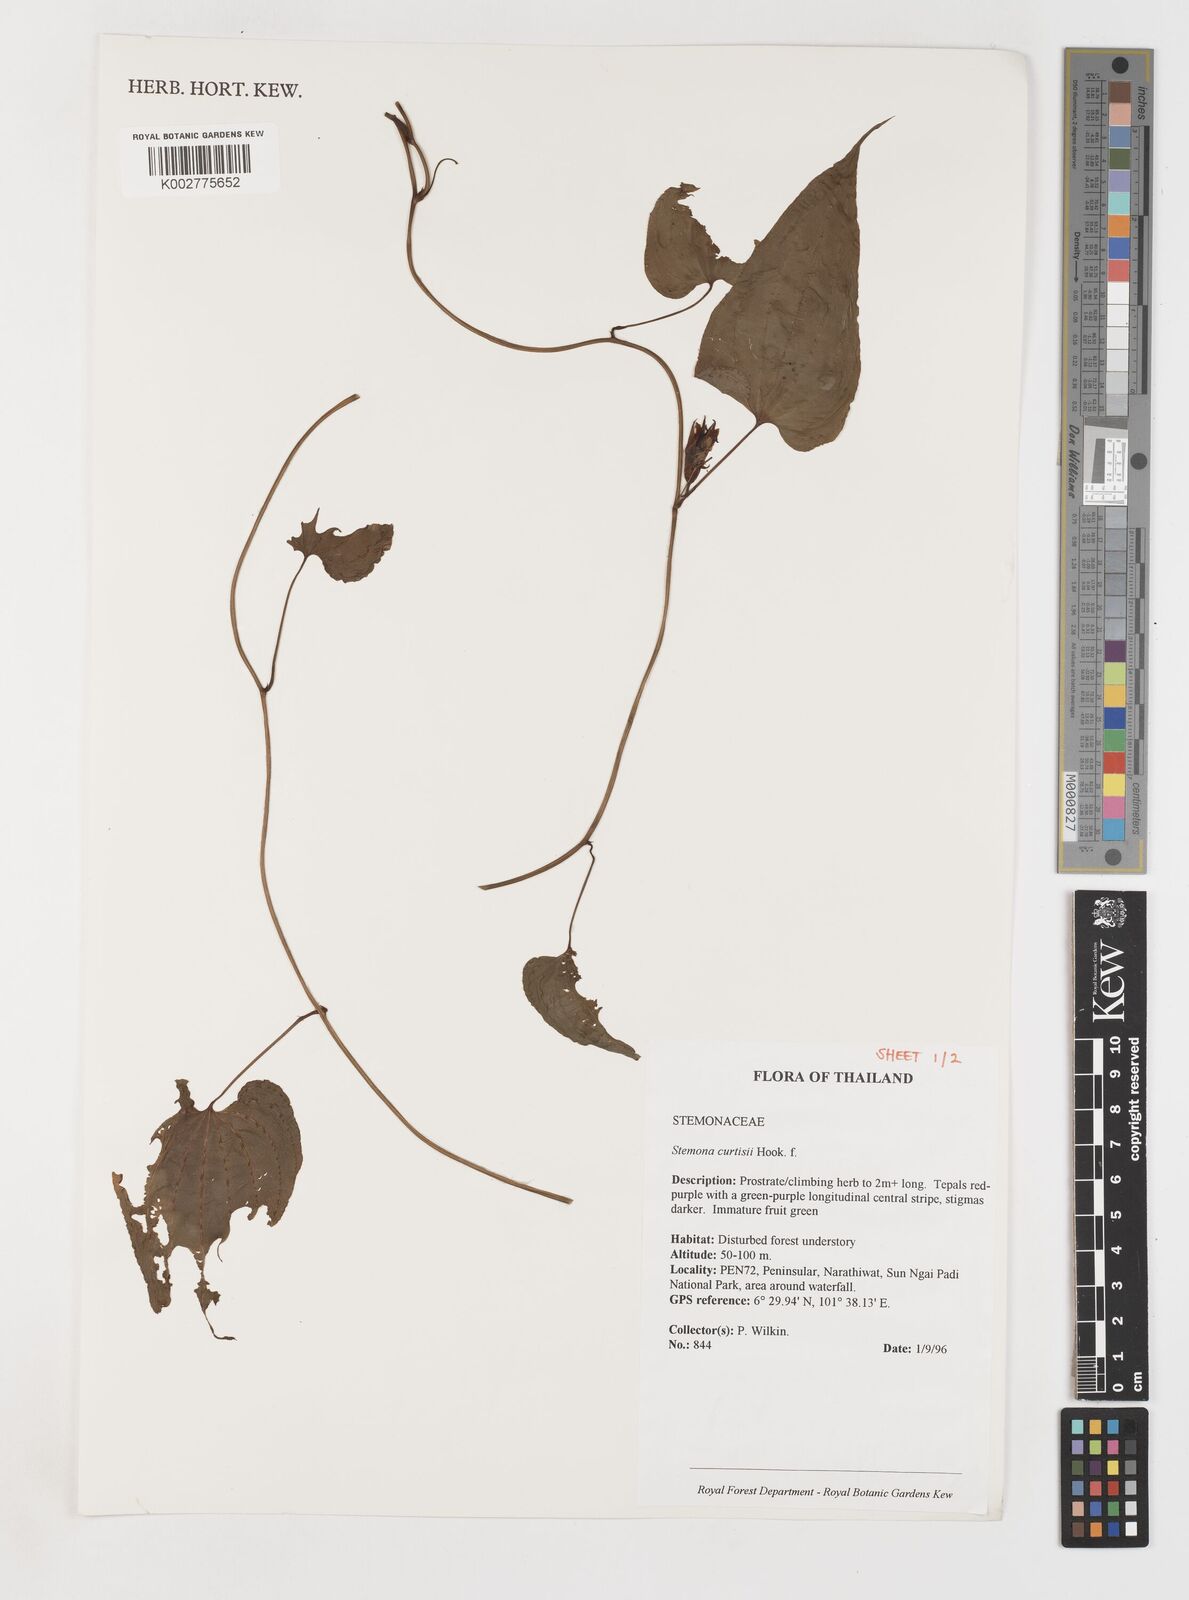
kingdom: Plantae
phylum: Tracheophyta
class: Liliopsida
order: Pandanales
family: Stemonaceae
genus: Stemona
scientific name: Stemona curtisii
